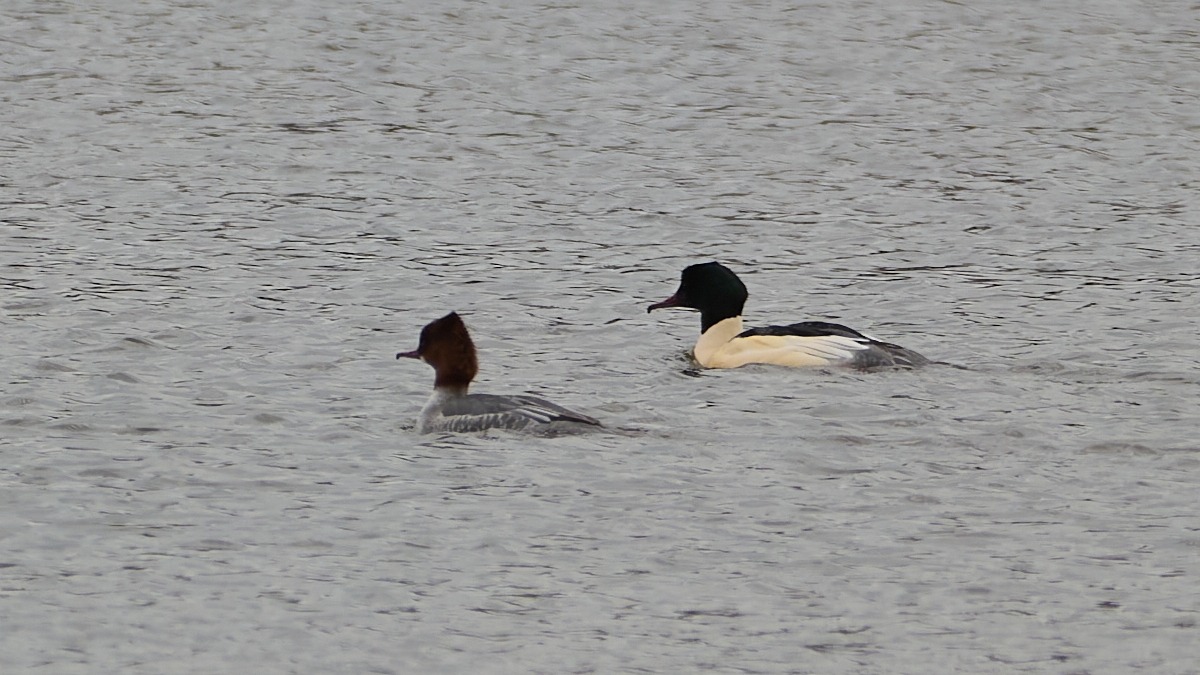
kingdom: Animalia
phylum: Chordata
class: Aves
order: Anseriformes
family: Anatidae
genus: Mergus
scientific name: Mergus merganser
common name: Stor skallesluger
